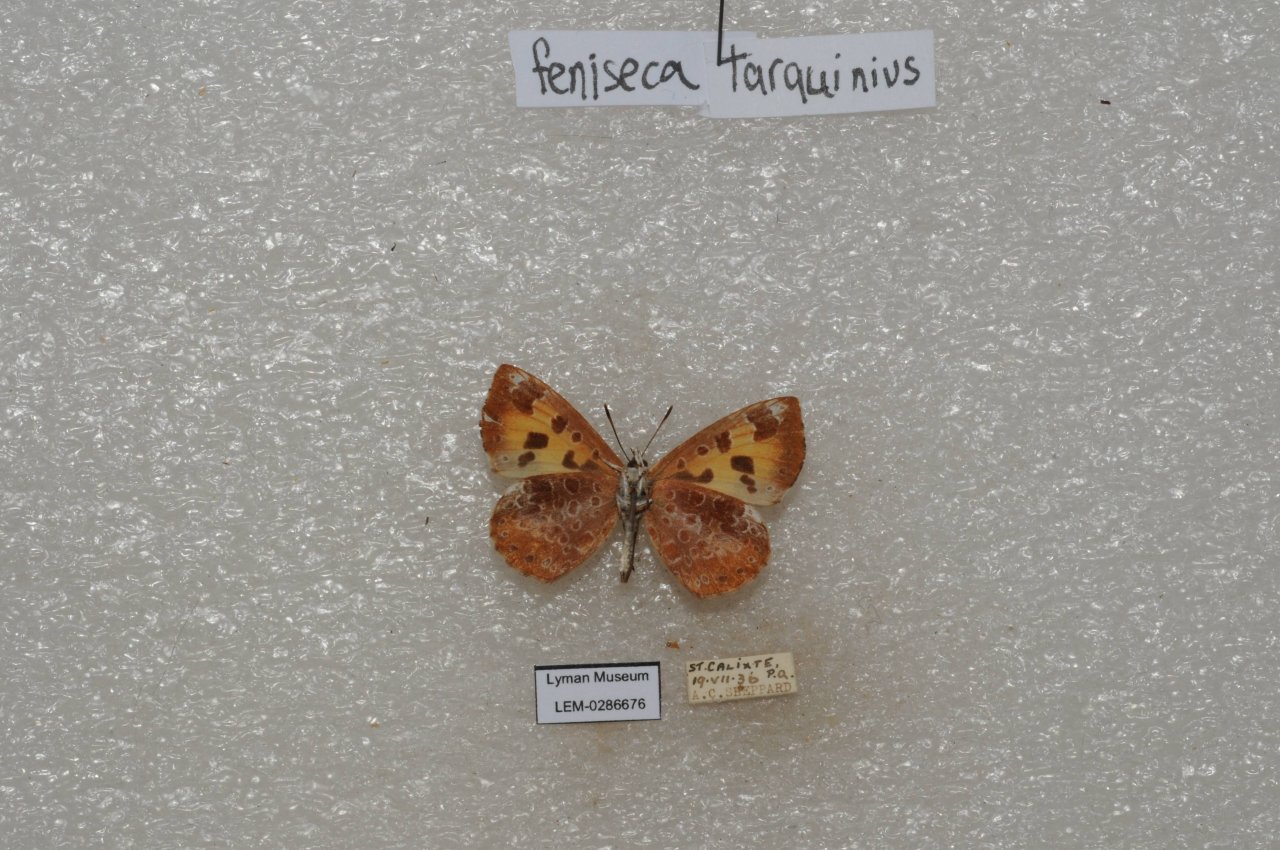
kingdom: Animalia
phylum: Arthropoda
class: Insecta
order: Lepidoptera
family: Lycaenidae
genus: Feniseca
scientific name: Feniseca tarquinius
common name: Harvester
